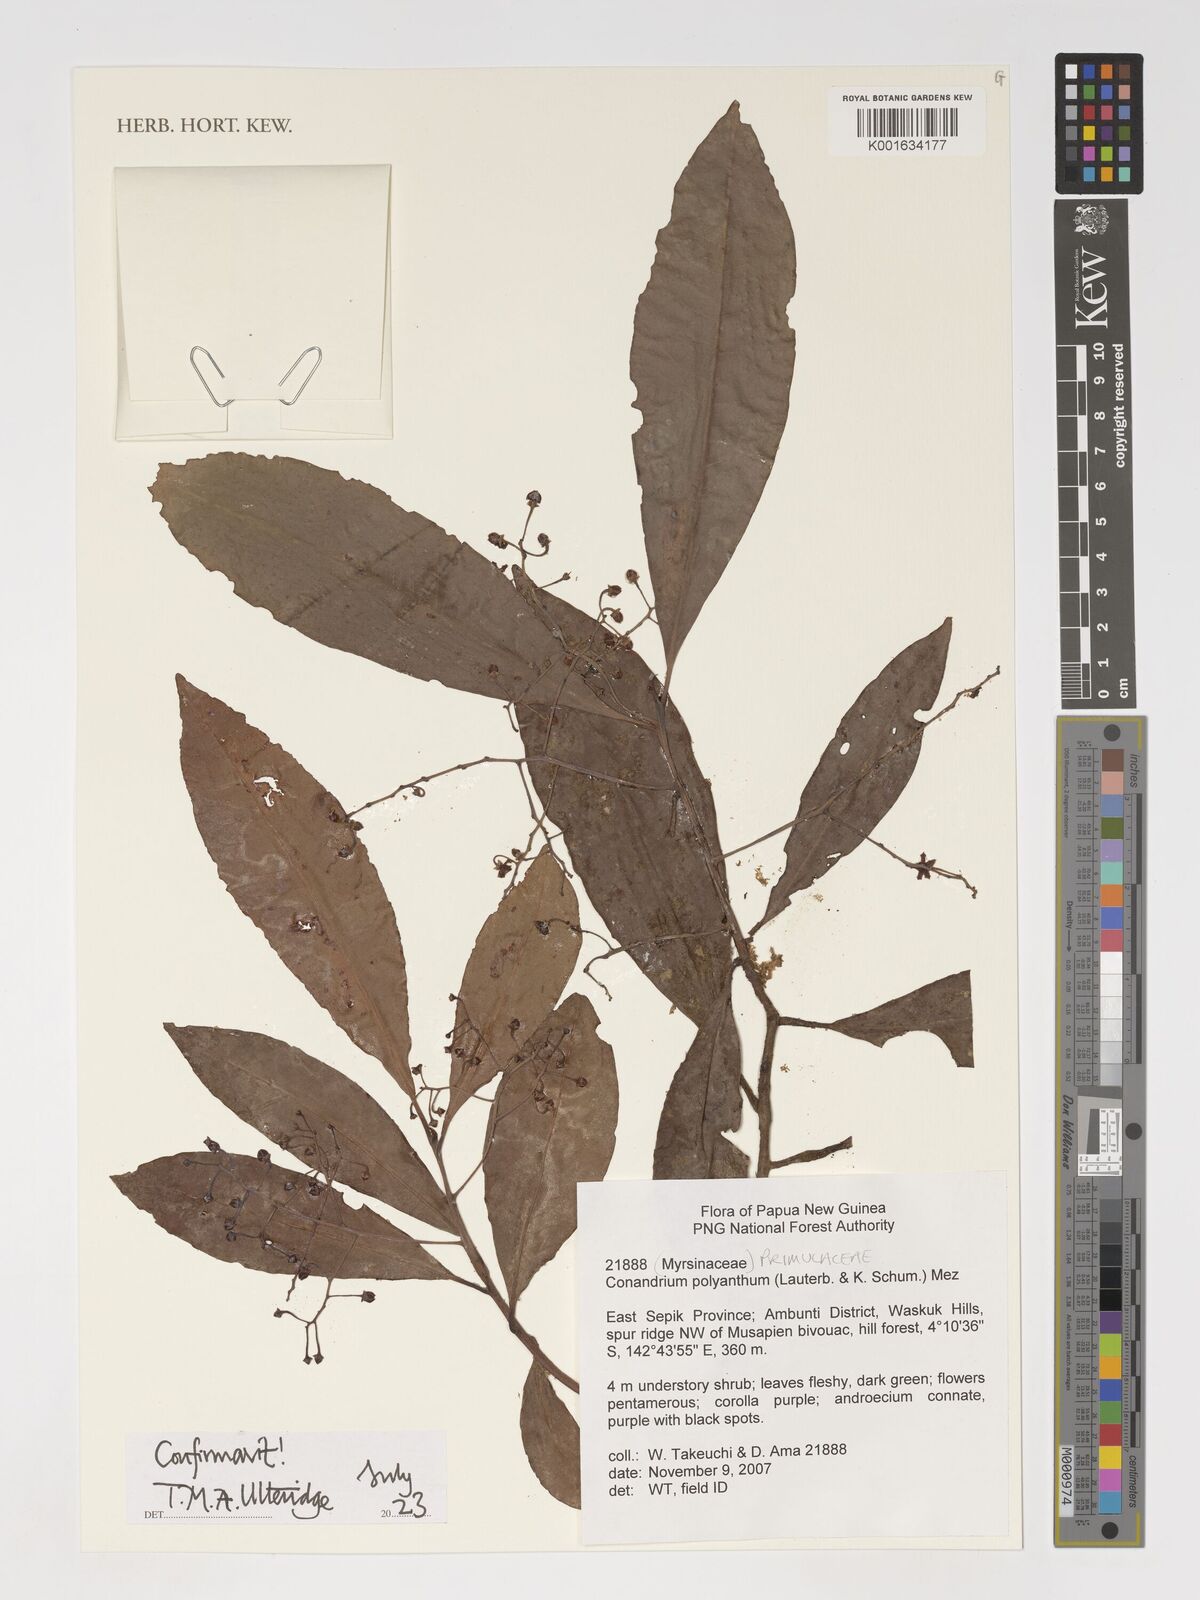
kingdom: Plantae
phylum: Tracheophyta
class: Magnoliopsida
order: Ericales
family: Primulaceae
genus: Conandrium
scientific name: Conandrium polyanthum
